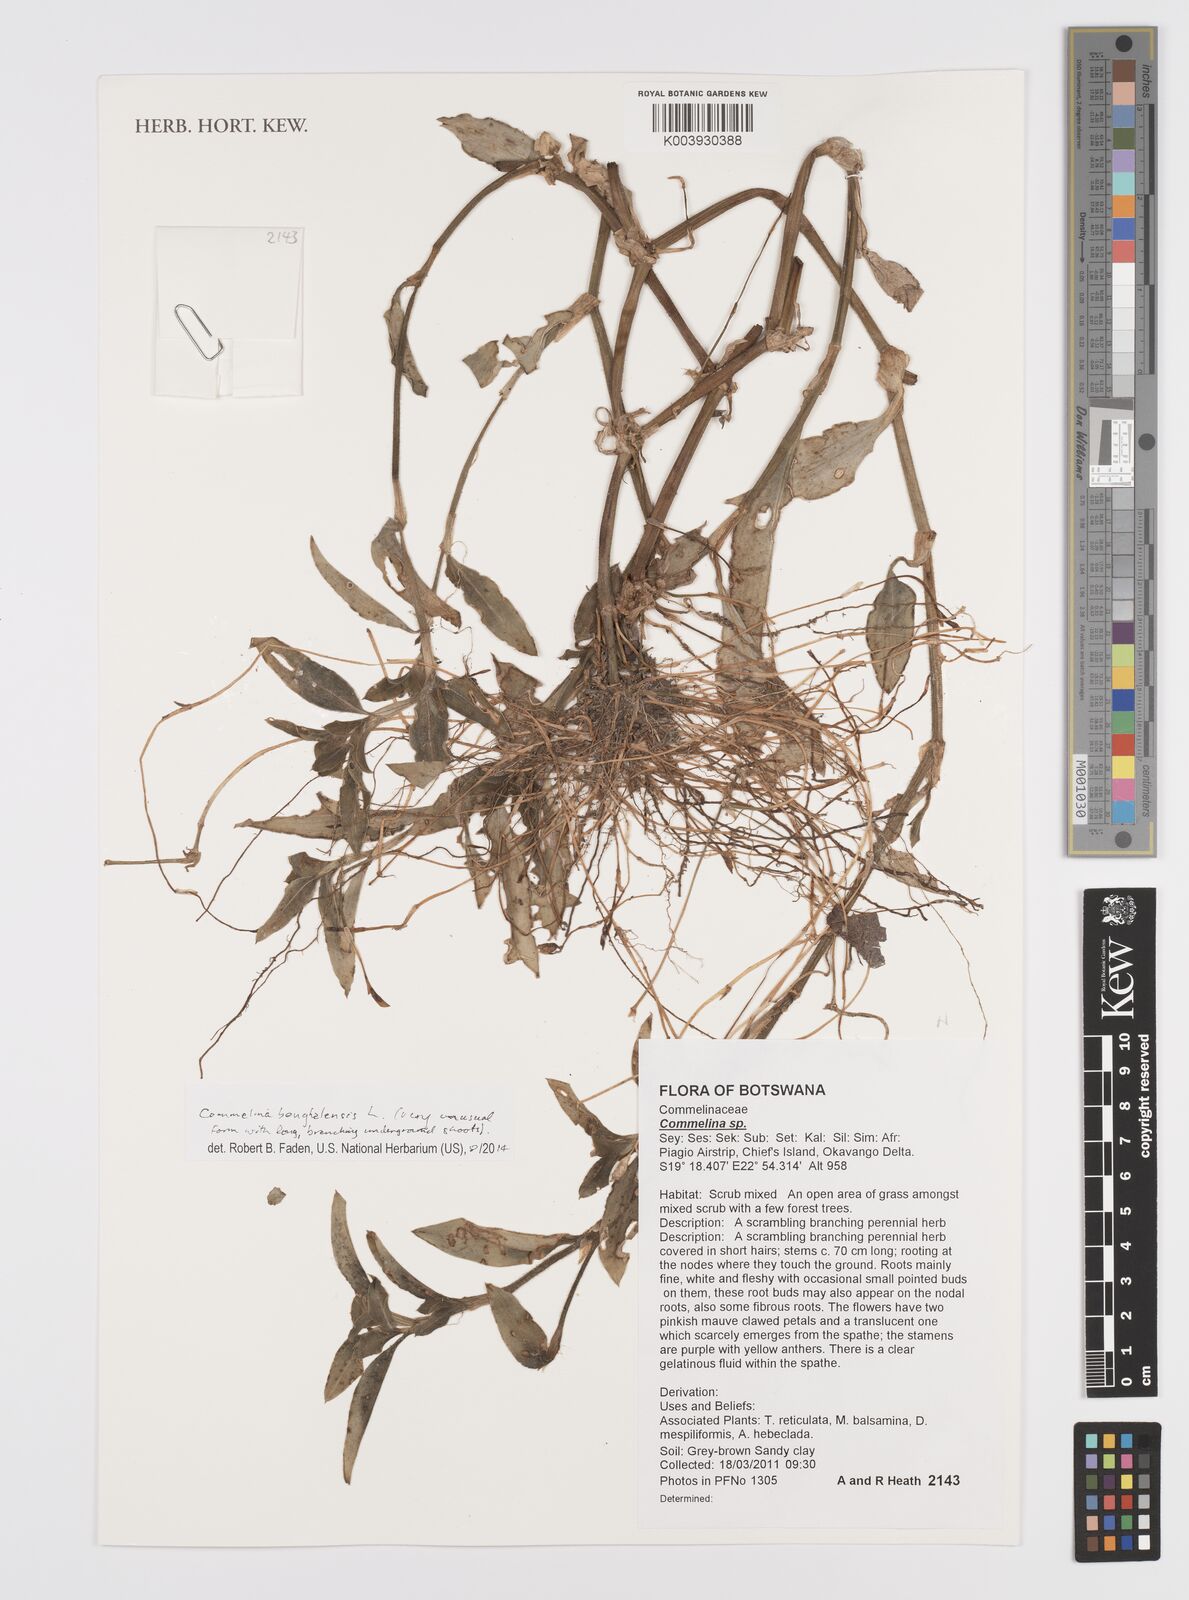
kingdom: Plantae
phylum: Tracheophyta
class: Liliopsida
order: Commelinales
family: Commelinaceae
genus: Commelina
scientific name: Commelina benghalensis
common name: Jio
